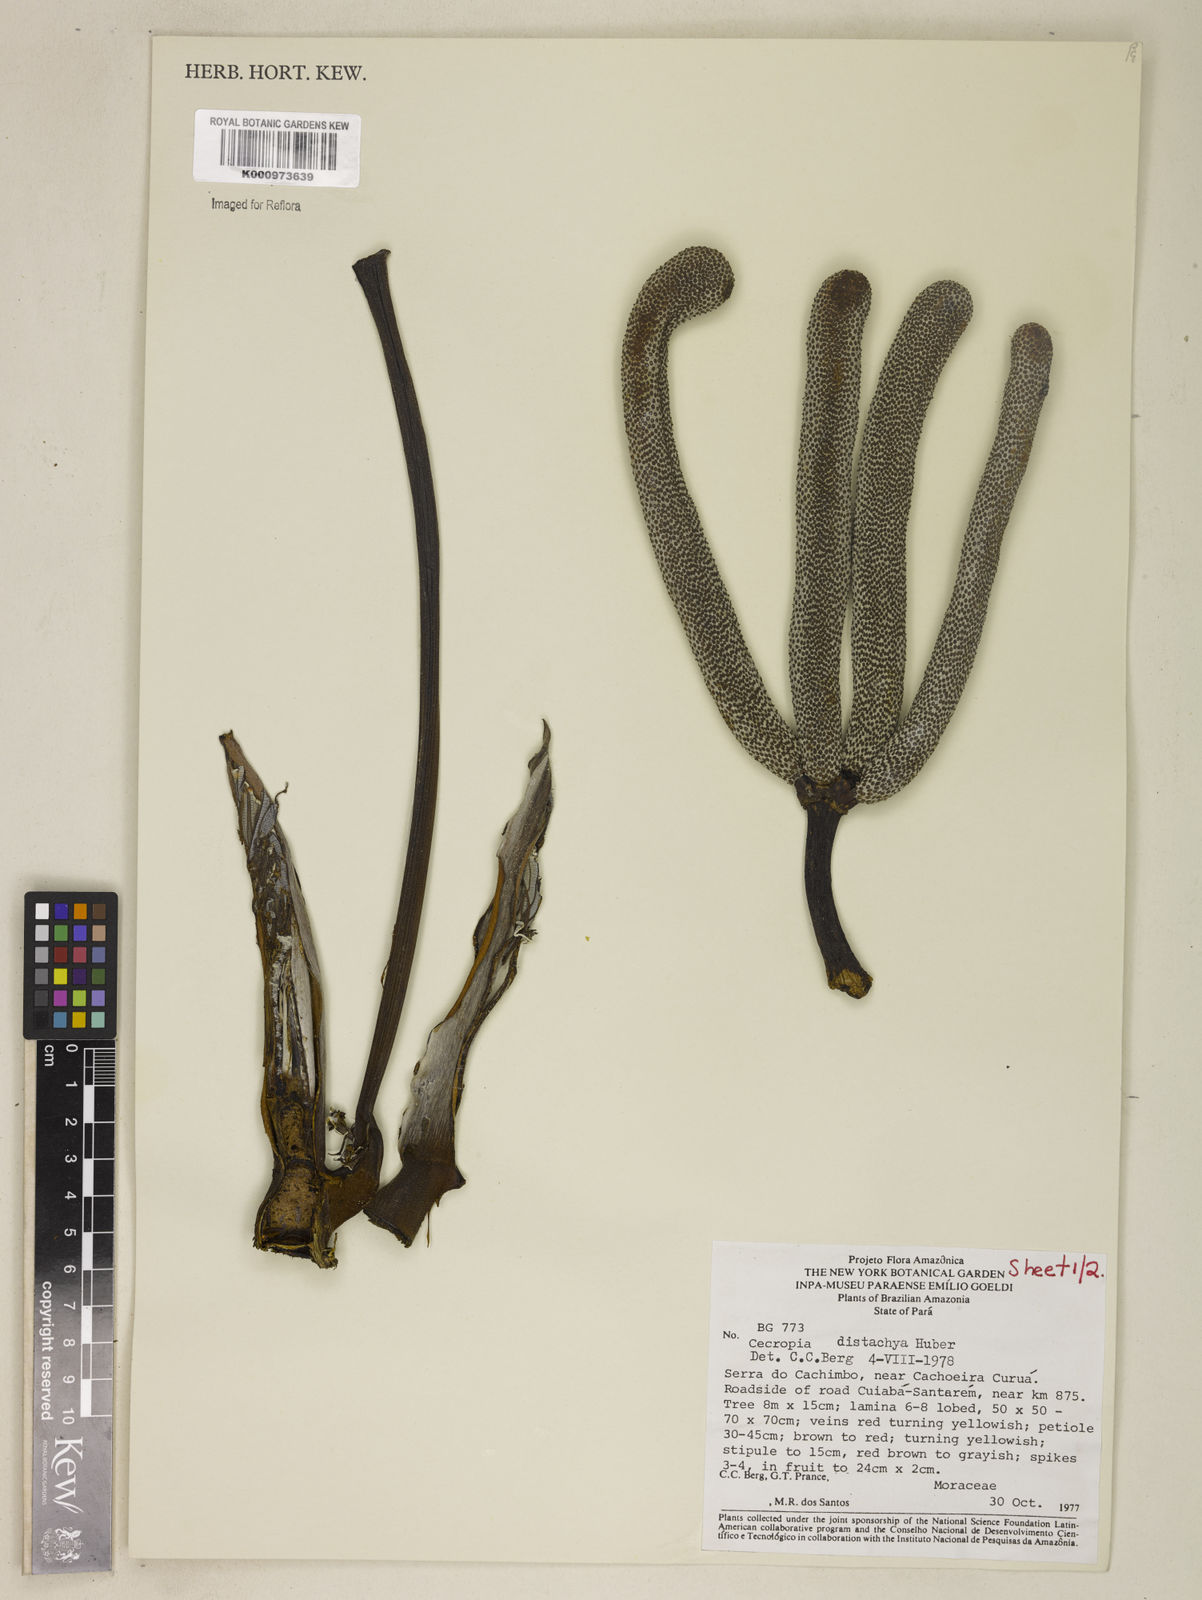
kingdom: Plantae
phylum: Tracheophyta
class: Magnoliopsida
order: Rosales
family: Urticaceae
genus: Cecropia
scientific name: Cecropia distachya
